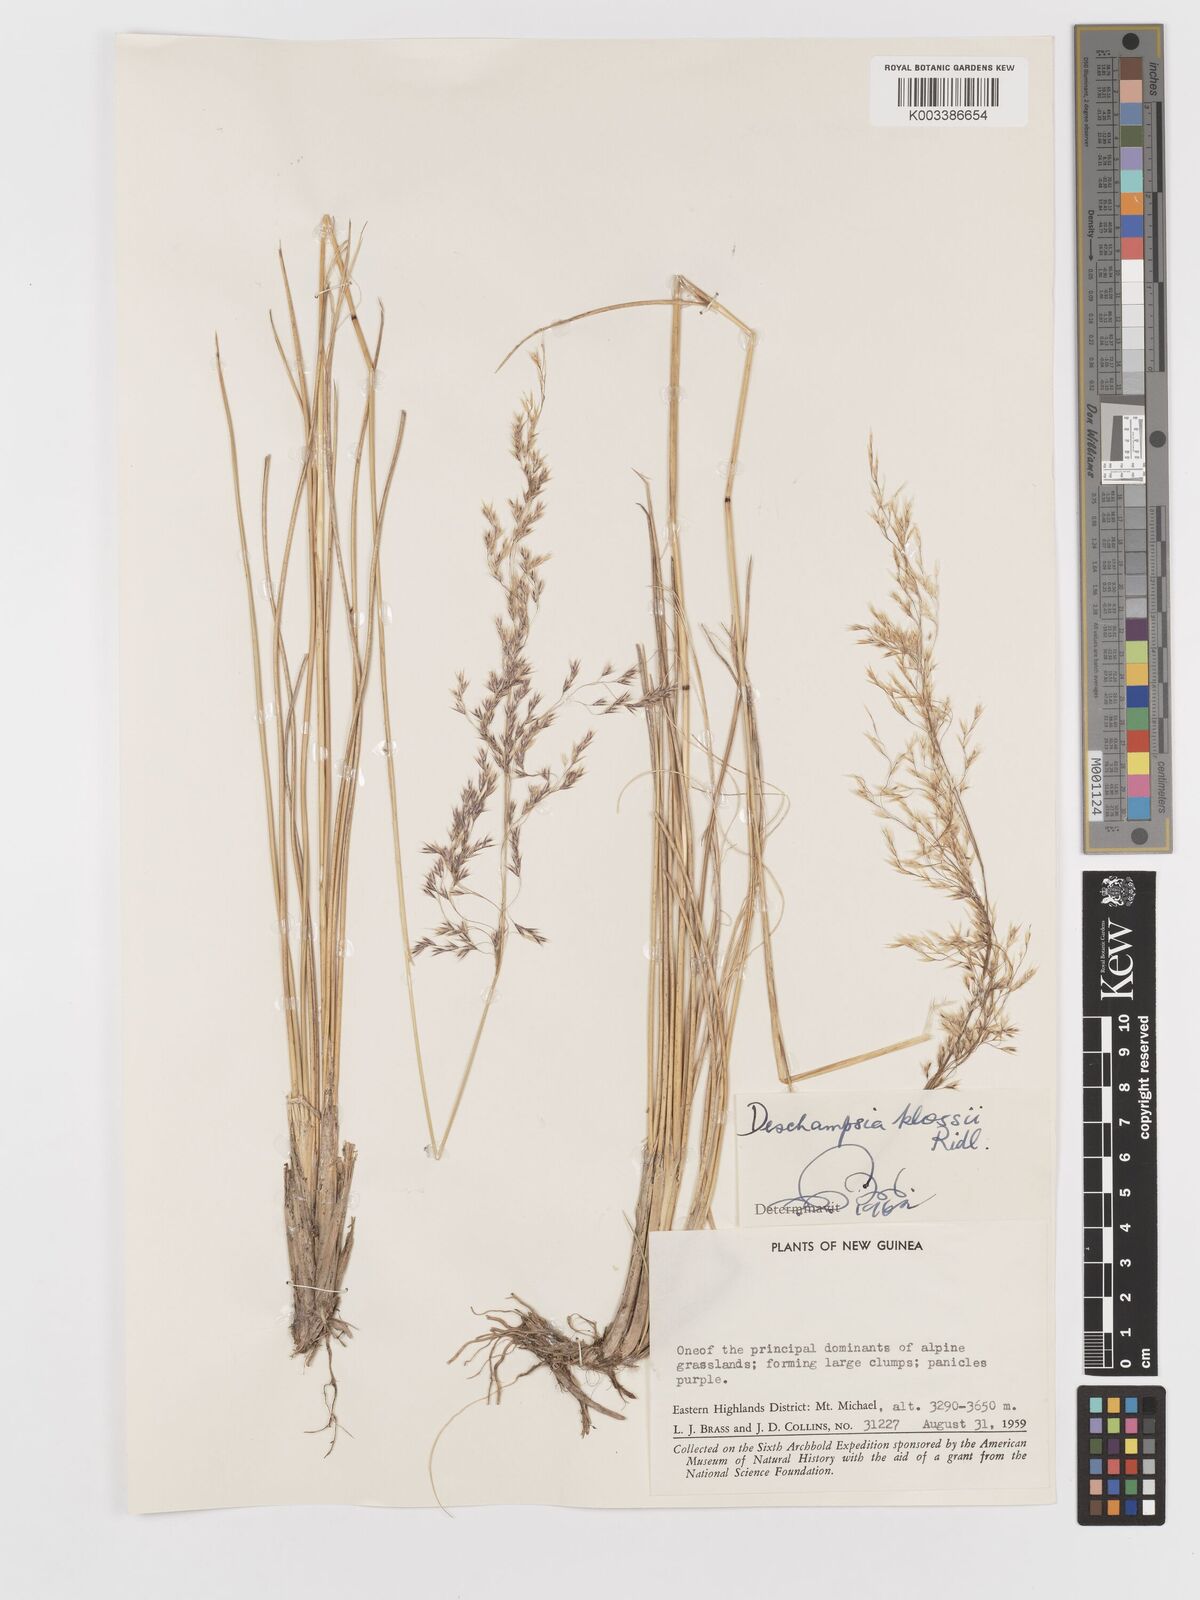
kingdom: Plantae
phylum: Tracheophyta
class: Liliopsida
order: Poales
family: Poaceae
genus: Deschampsia
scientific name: Deschampsia klossii
